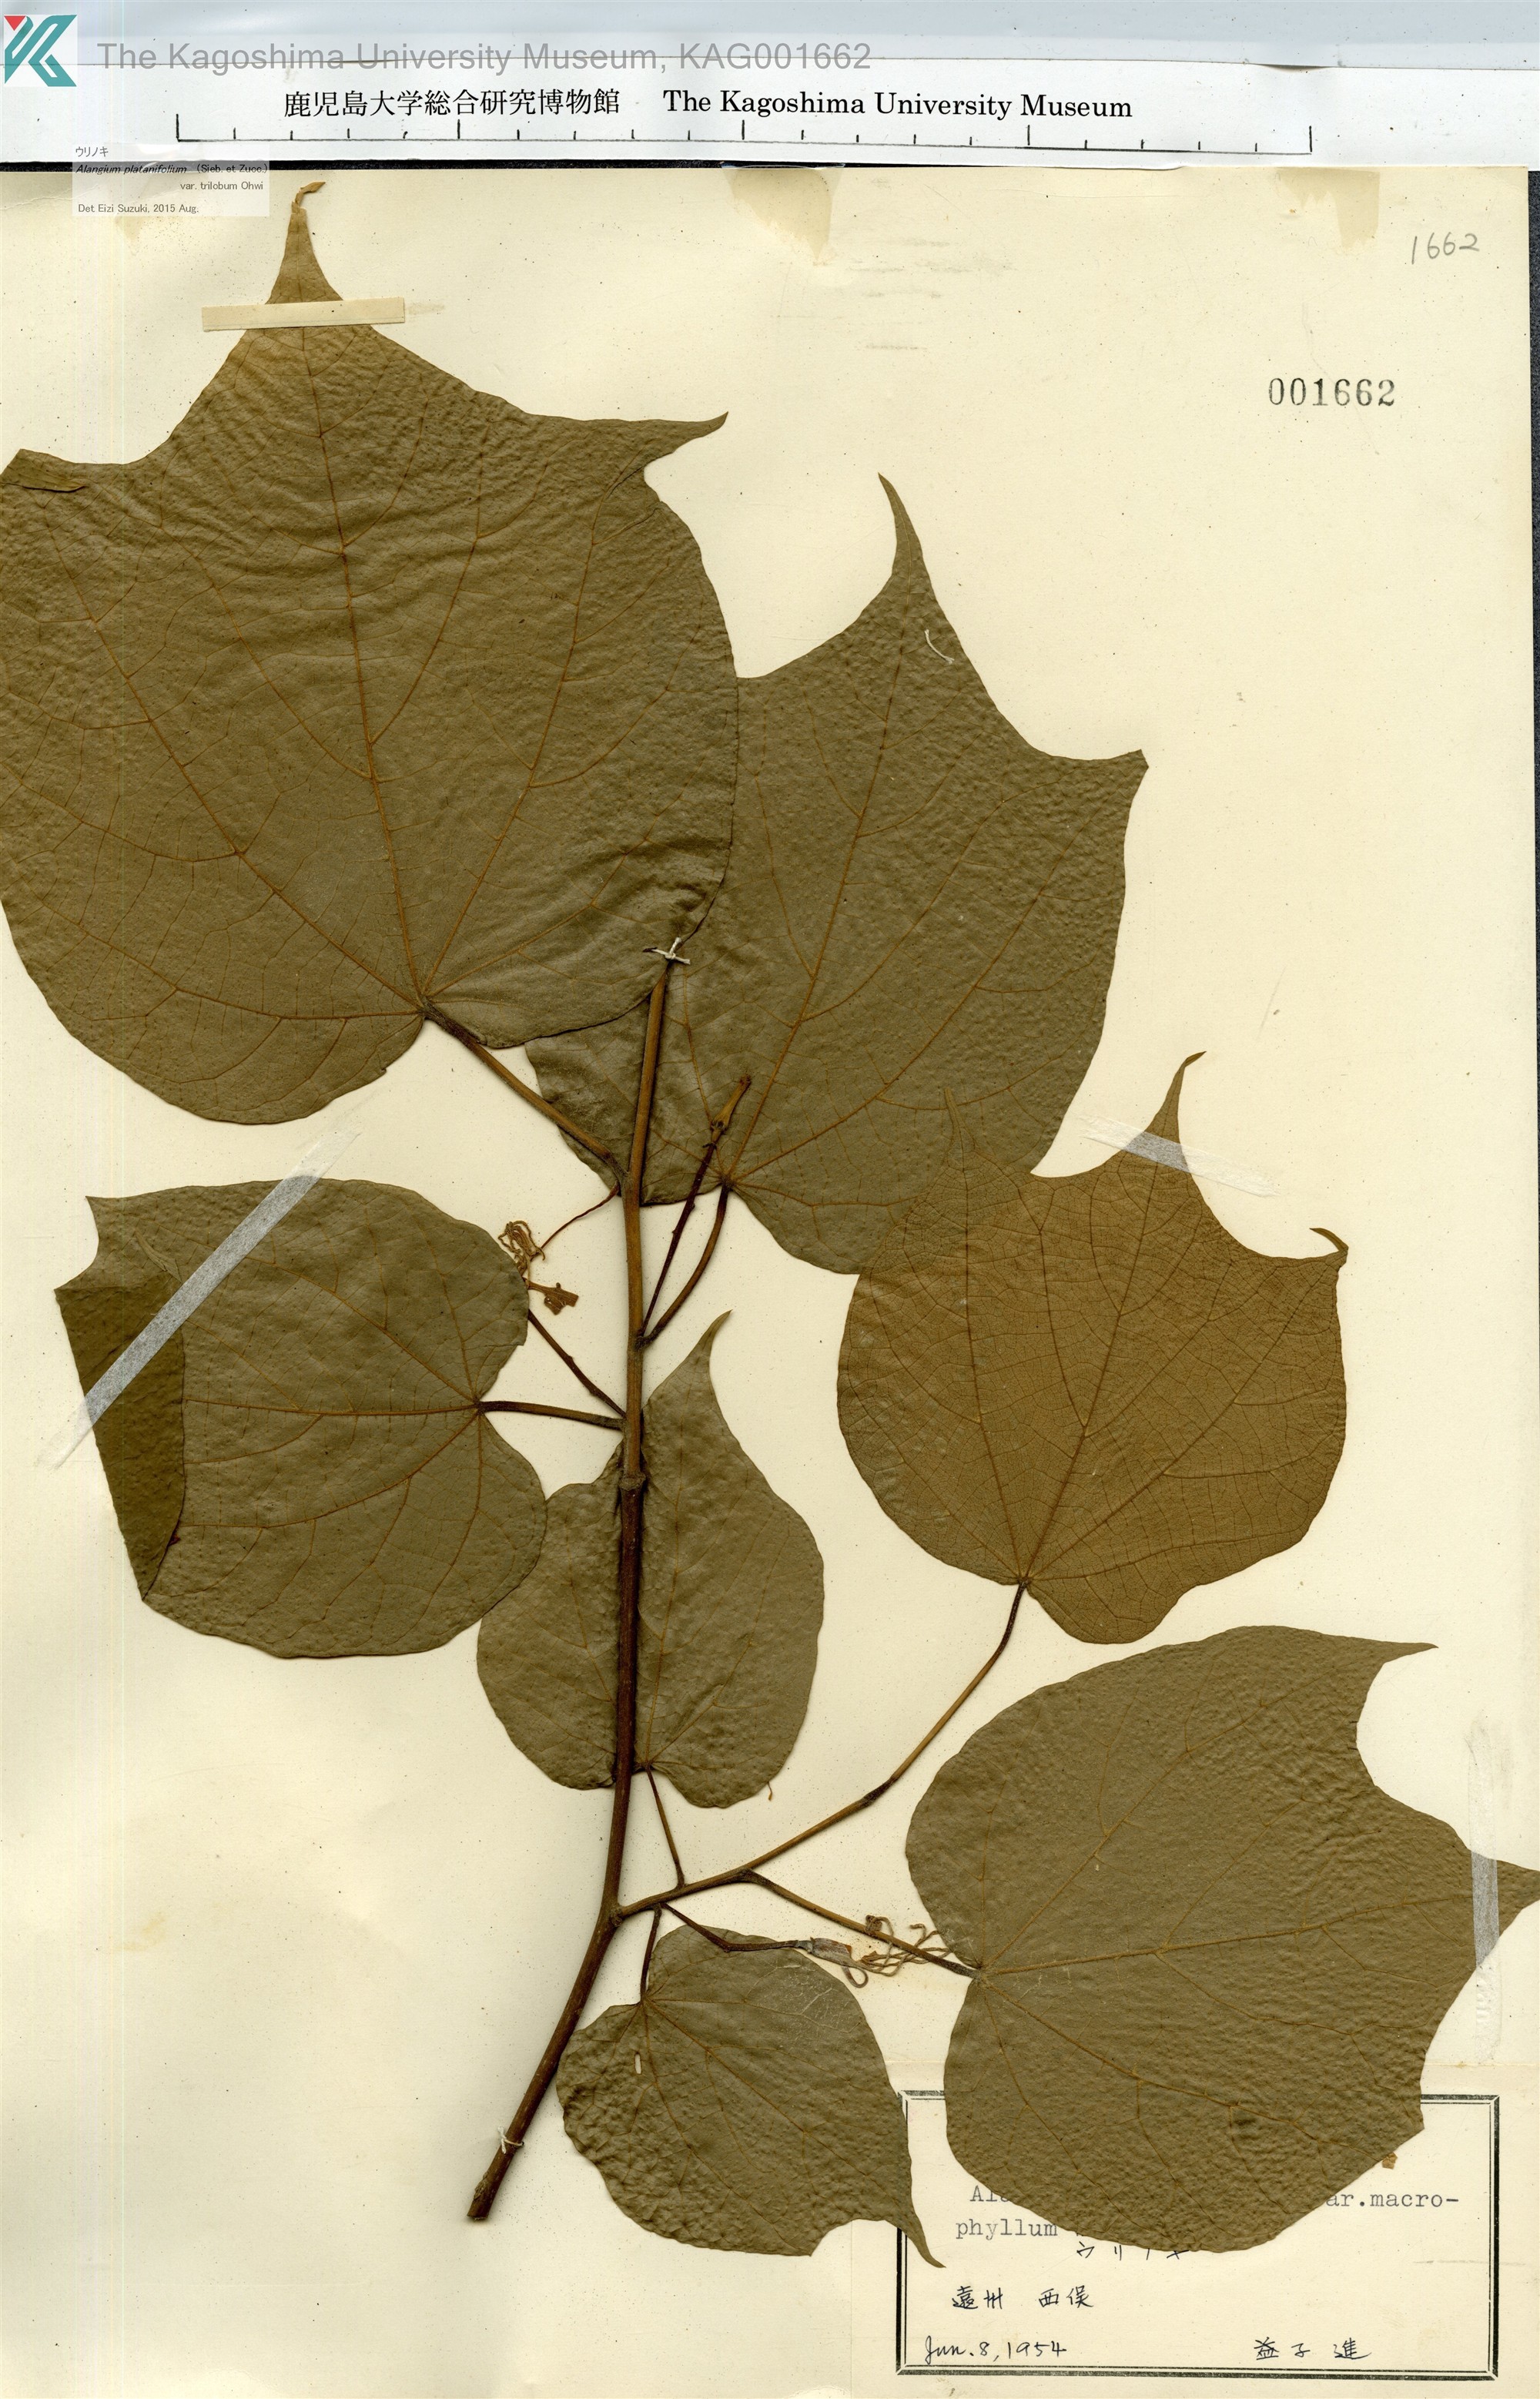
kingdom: Plantae
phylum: Tracheophyta
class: Magnoliopsida
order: Cornales
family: Cornaceae
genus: Alangium
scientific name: Alangium platanifolium
